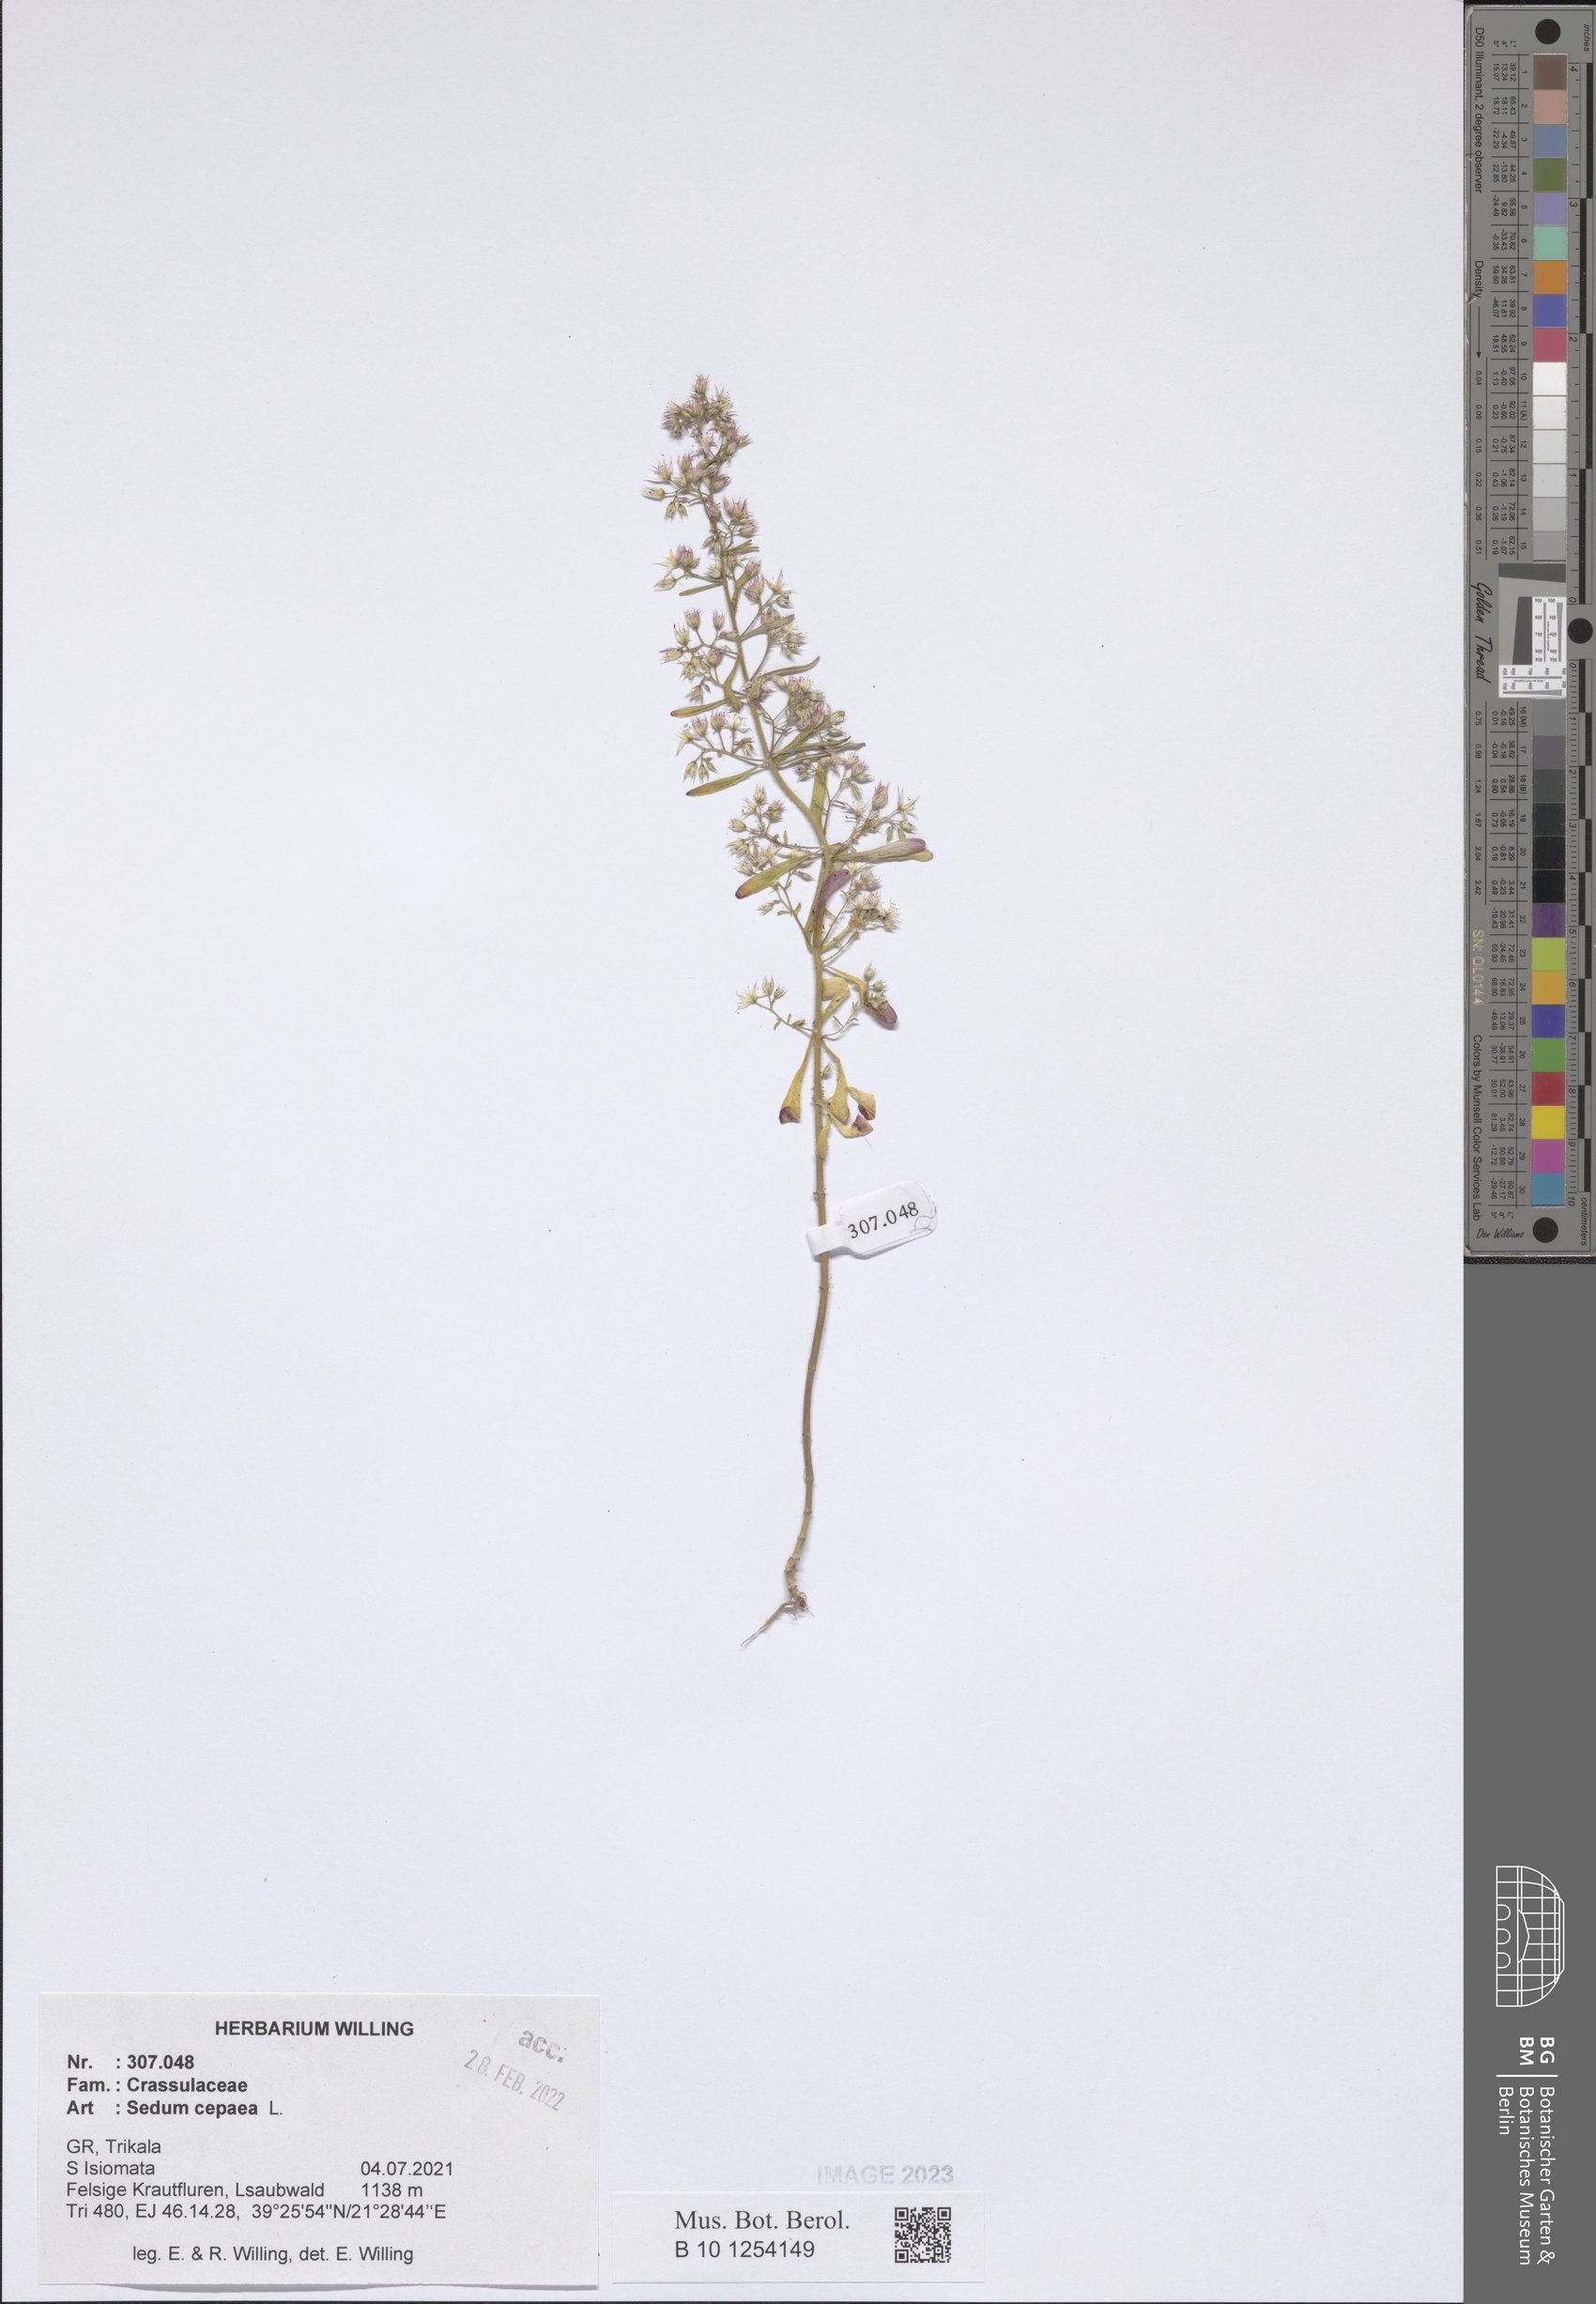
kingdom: Plantae
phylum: Tracheophyta
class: Magnoliopsida
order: Saxifragales
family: Crassulaceae
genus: Sedum
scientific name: Sedum cepaea
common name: Pink stonecrop
